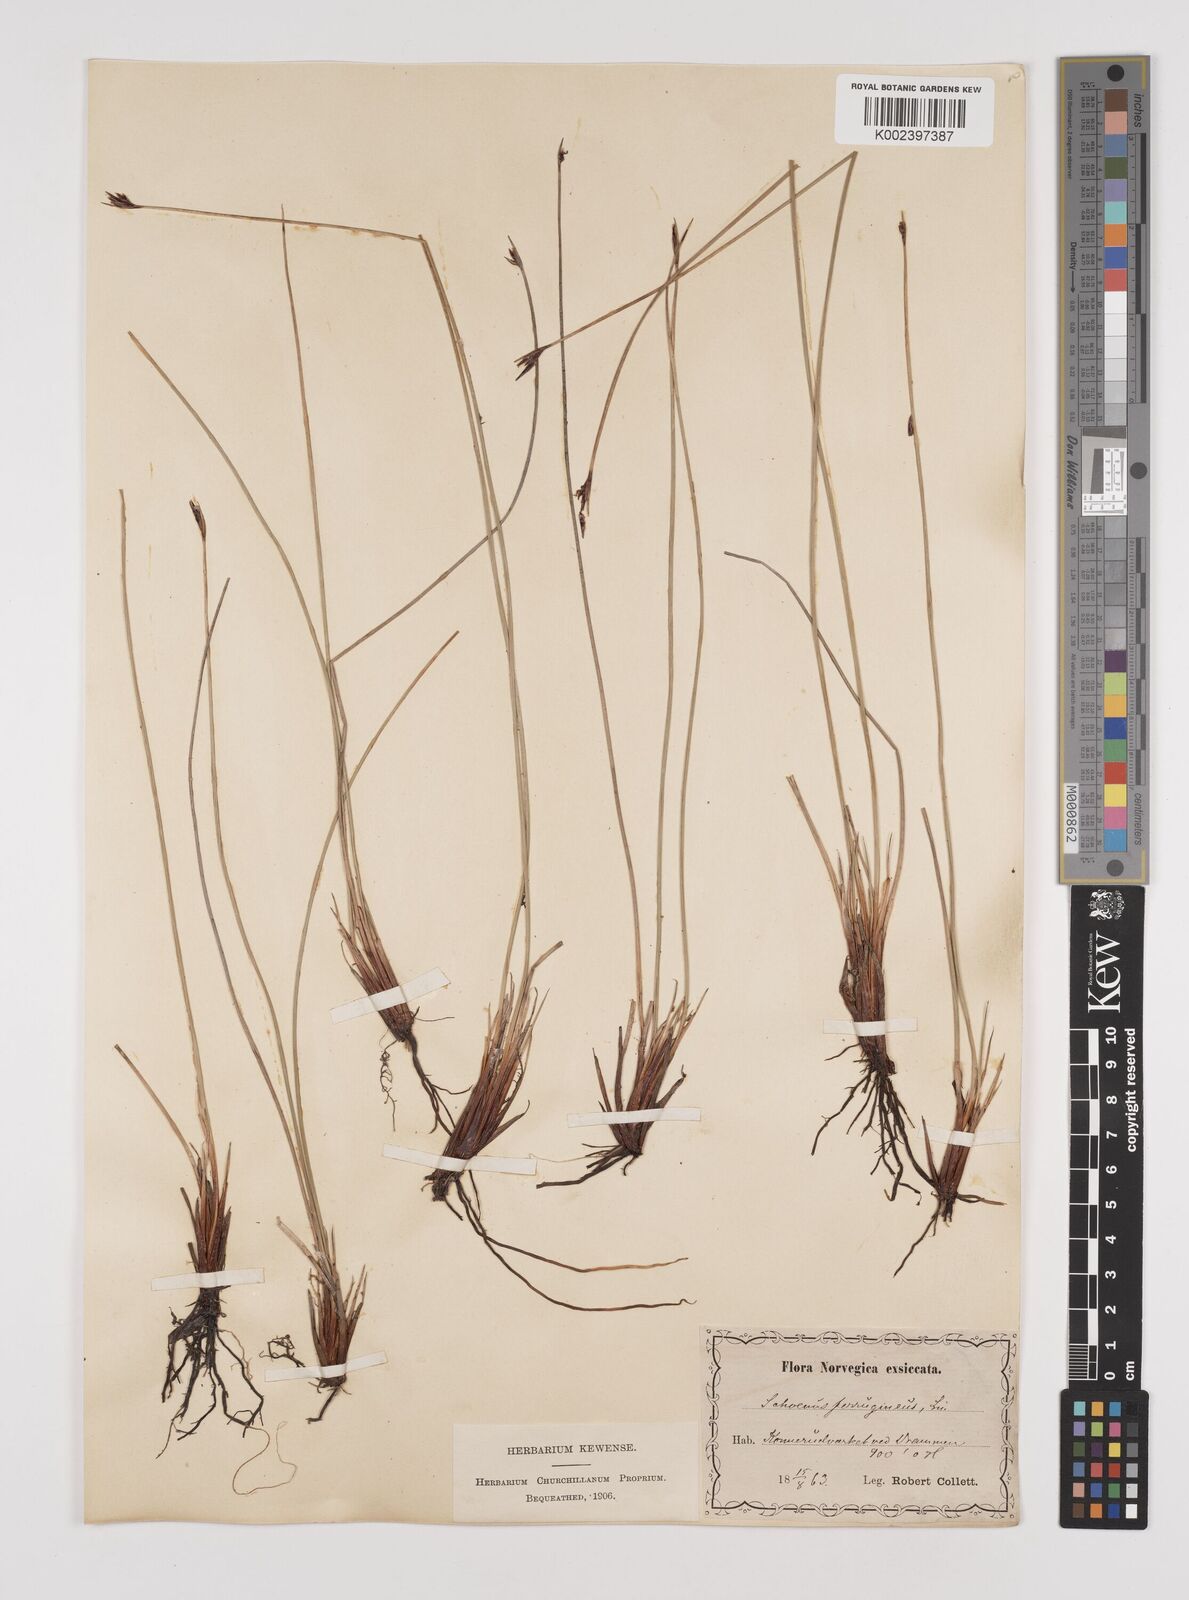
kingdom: Plantae
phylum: Tracheophyta
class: Liliopsida
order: Poales
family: Cyperaceae
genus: Schoenus
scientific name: Schoenus ferrugineus
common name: Brown bog-rush
